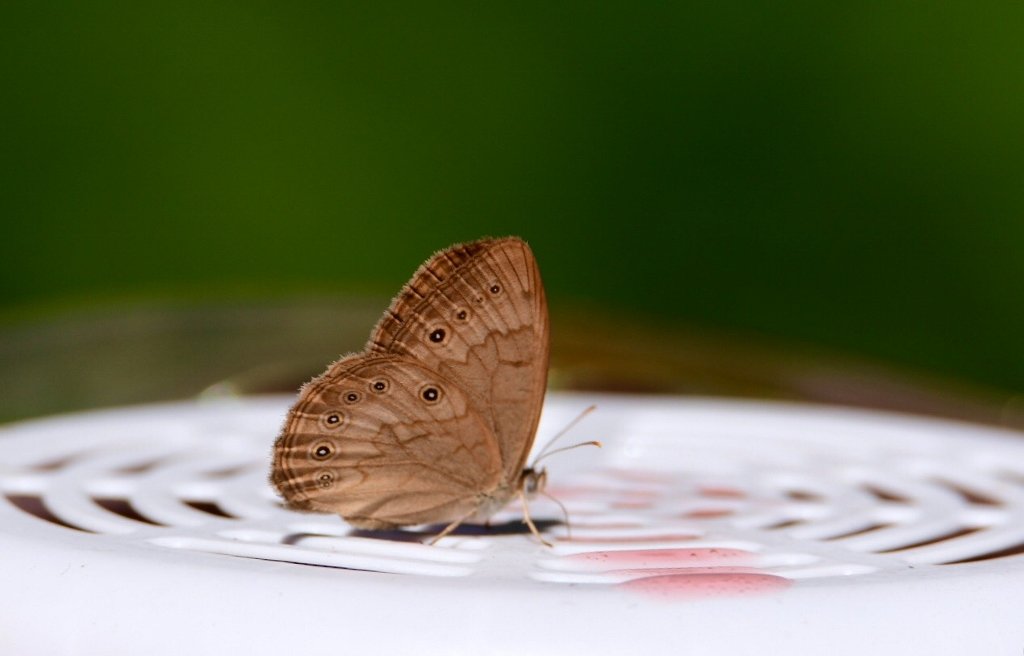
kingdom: Animalia
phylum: Arthropoda
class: Insecta
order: Lepidoptera
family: Nymphalidae
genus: Lethe
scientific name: Lethe eurydice
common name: Eyed Brown
